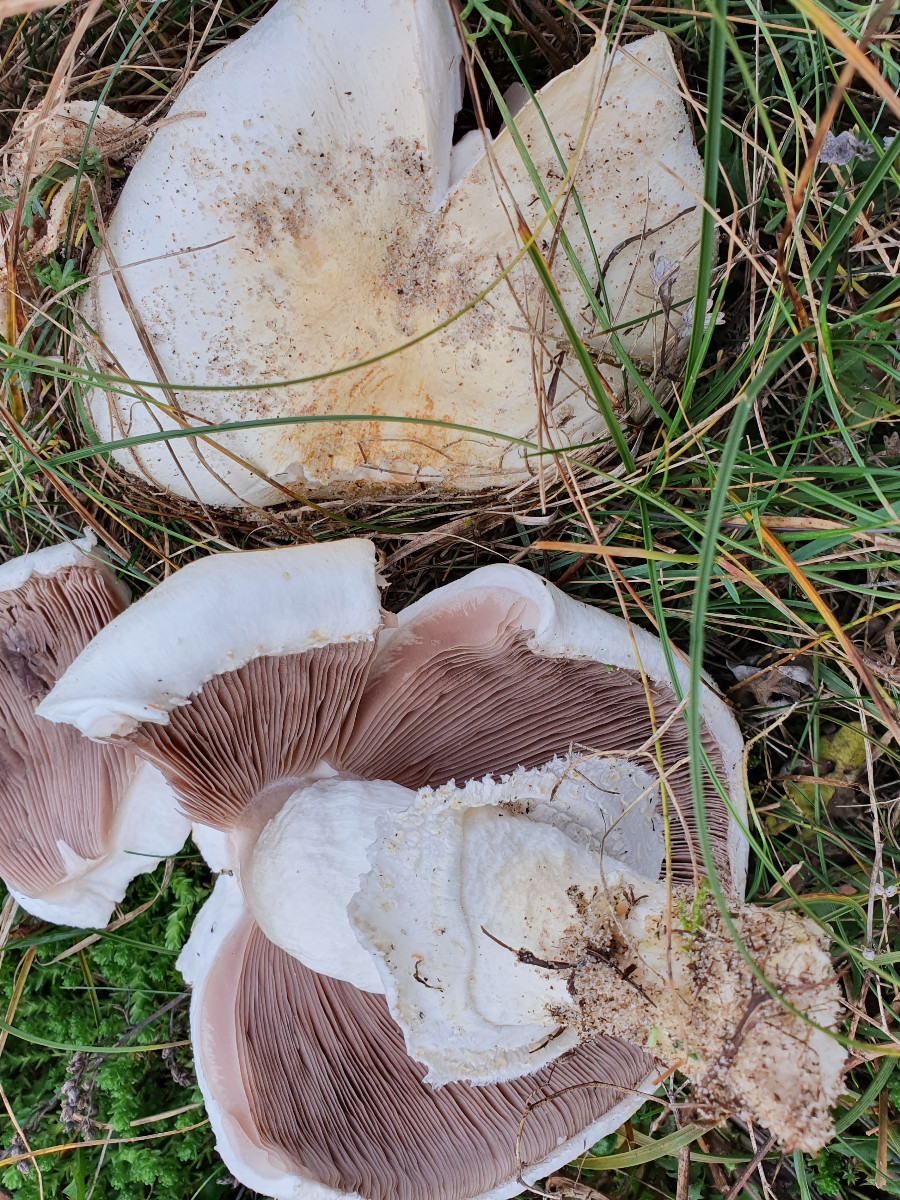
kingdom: Fungi
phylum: Basidiomycota
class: Agaricomycetes
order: Agaricales
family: Agaricaceae
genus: Agaricus
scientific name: Agaricus
